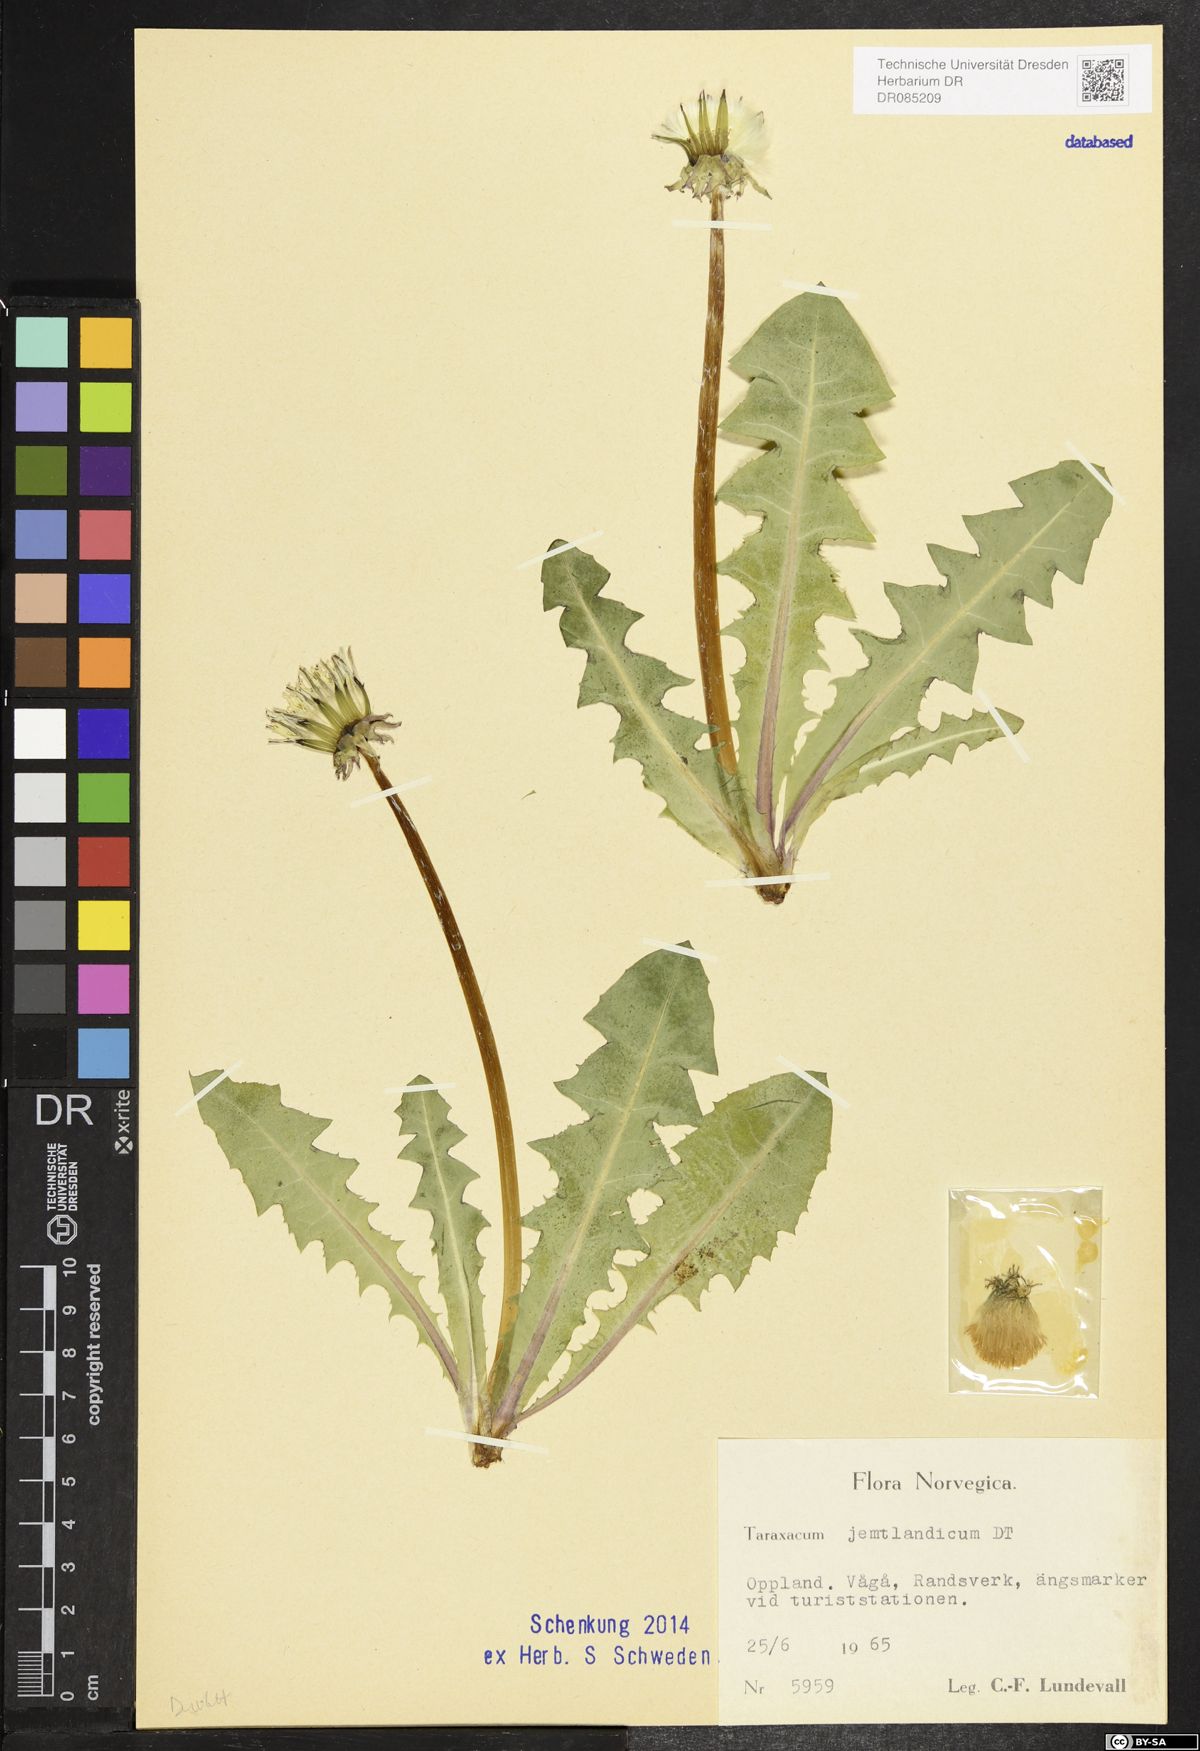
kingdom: Plantae
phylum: Tracheophyta
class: Magnoliopsida
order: Asterales
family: Asteraceae
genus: Taraxacum
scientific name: Taraxacum jemtlandicum
